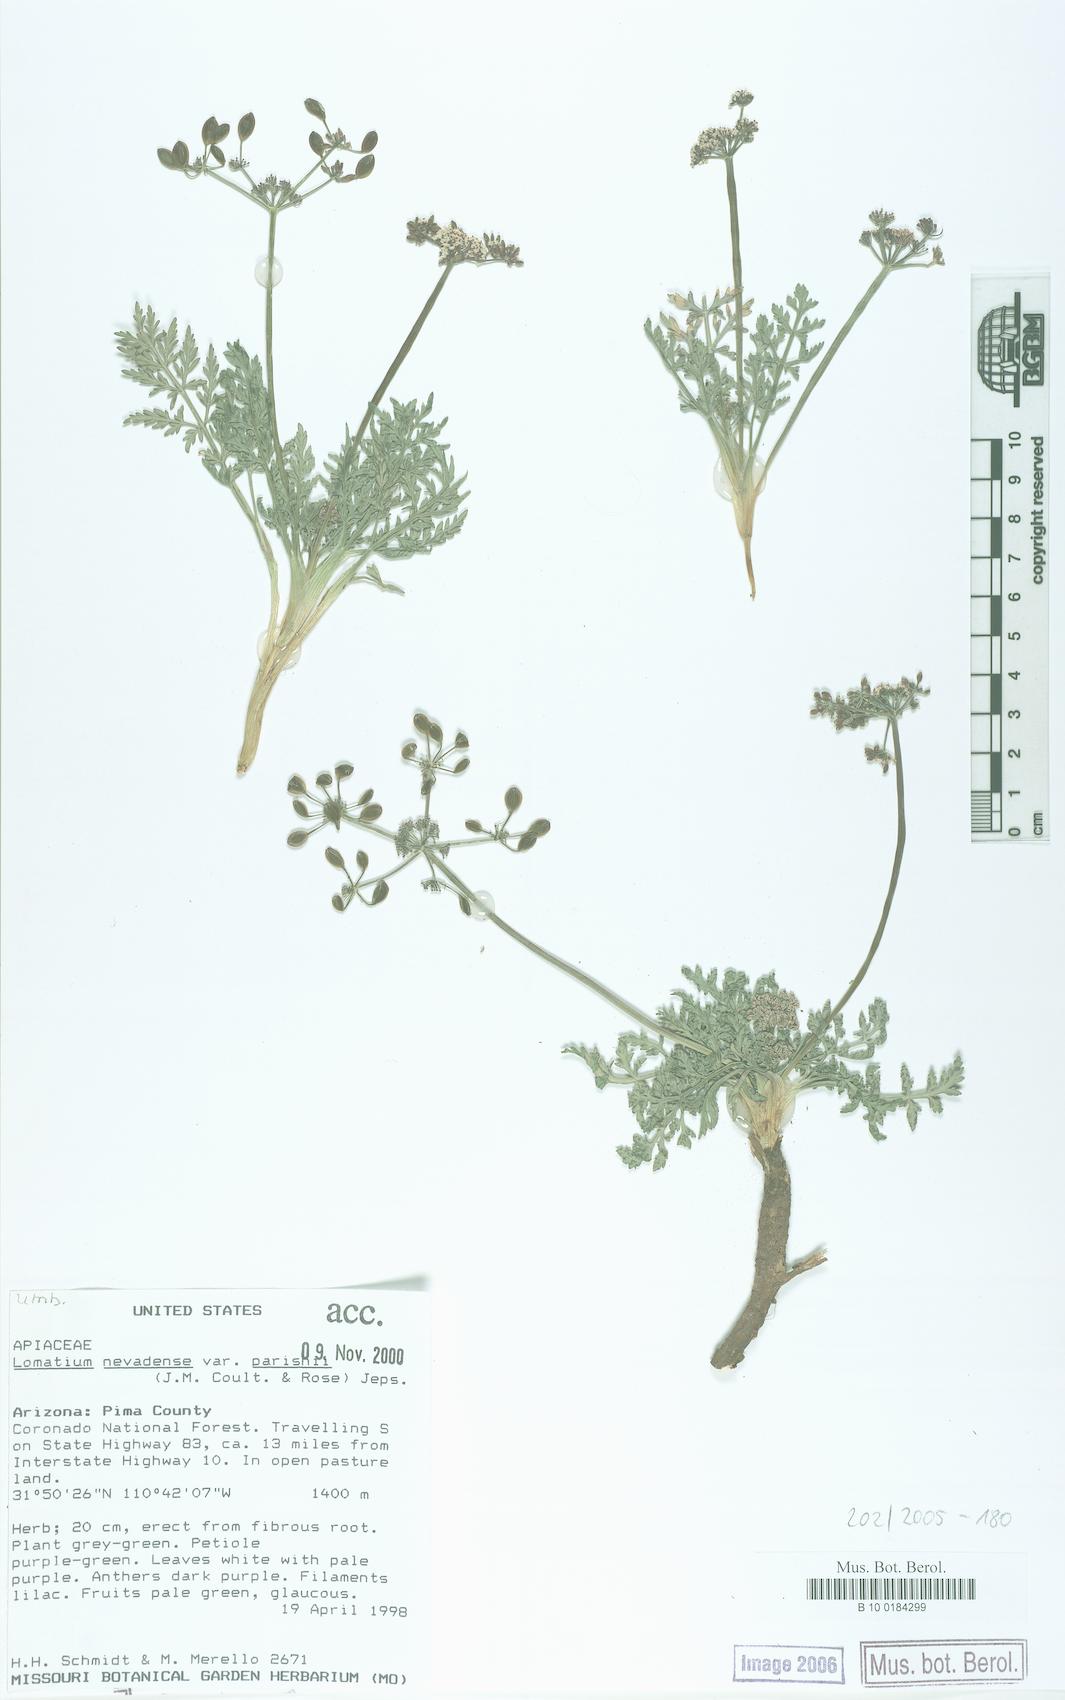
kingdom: Plantae
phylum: Tracheophyta
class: Magnoliopsida
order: Apiales
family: Apiaceae
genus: Lomatium
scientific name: Lomatium nevadense
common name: Nevada lomatium
